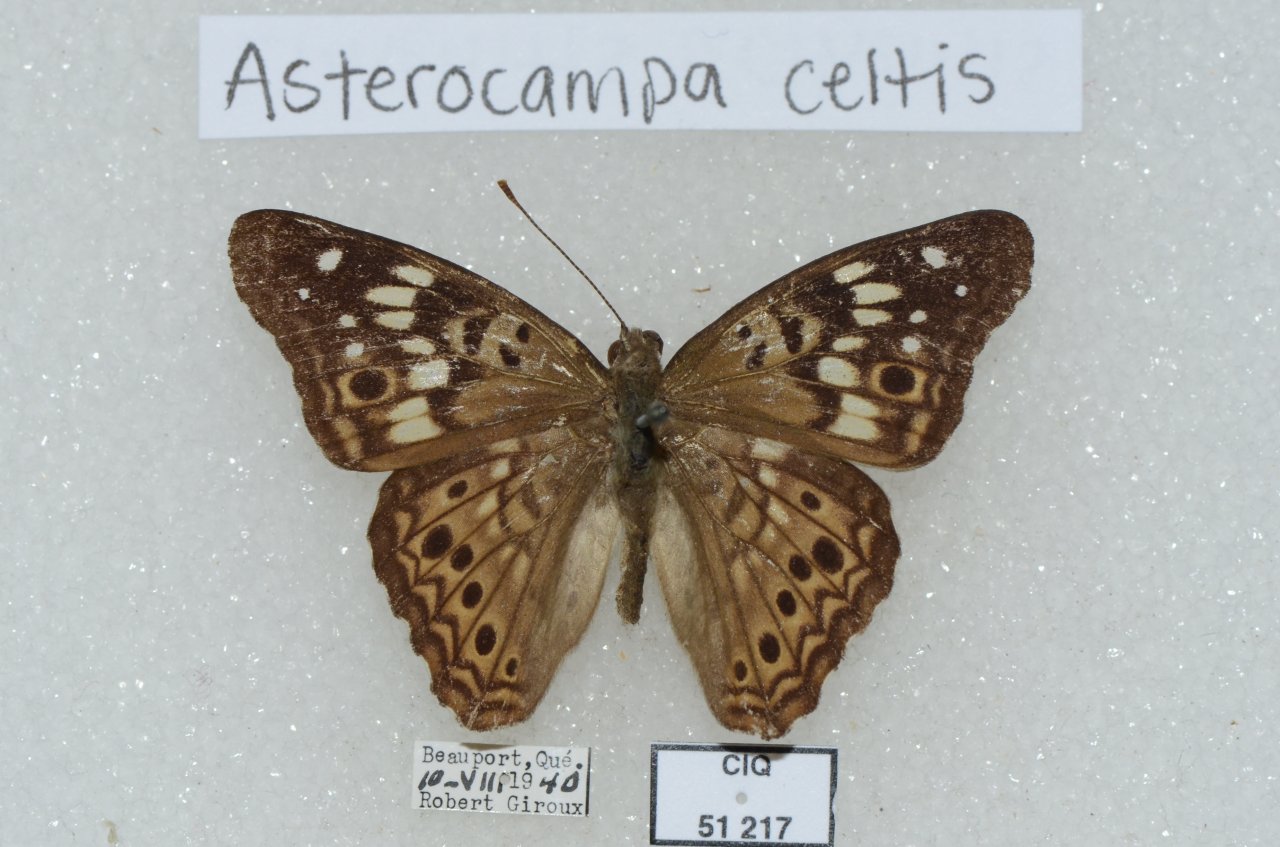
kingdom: Animalia
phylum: Arthropoda
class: Insecta
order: Lepidoptera
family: Nymphalidae
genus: Asterocampa
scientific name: Asterocampa celtis
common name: Hackberry Emperor
